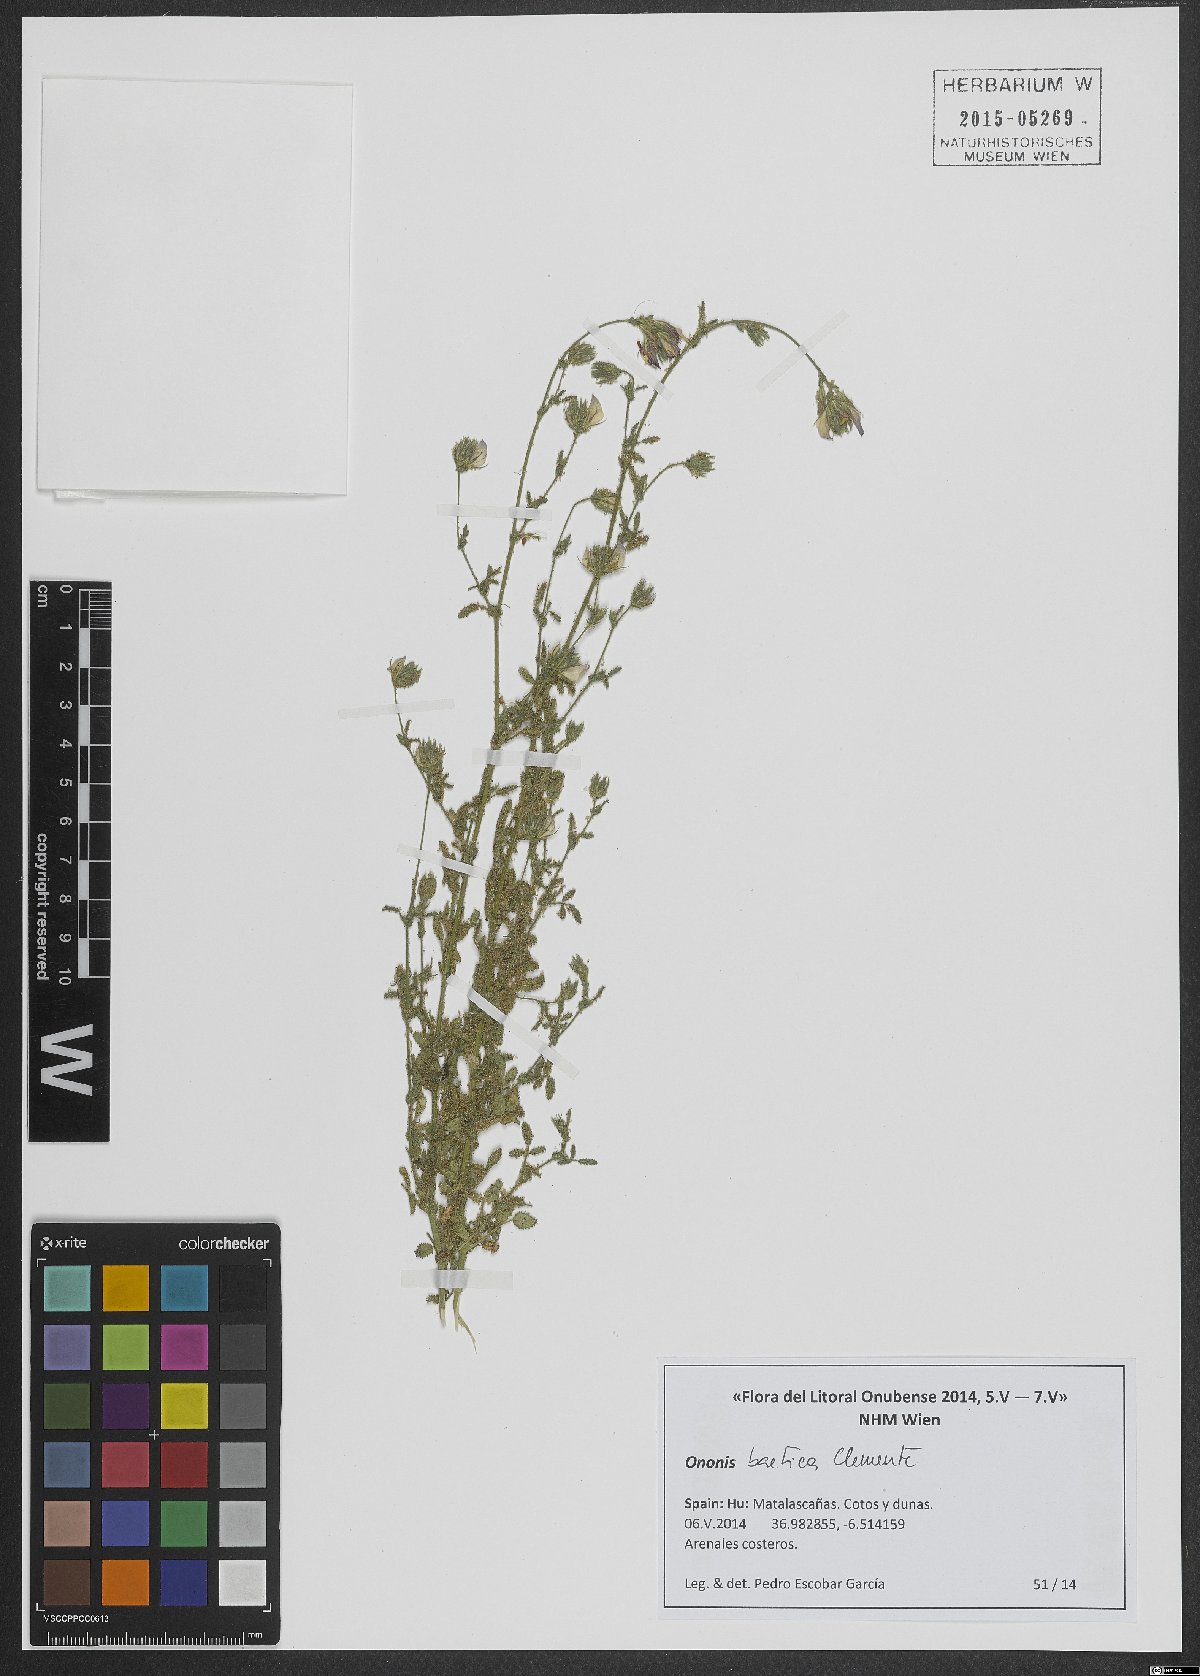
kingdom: Plantae
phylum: Tracheophyta
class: Magnoliopsida
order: Fabales
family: Fabaceae
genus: Ononis
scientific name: Ononis baetica
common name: Andalucian restharrow
